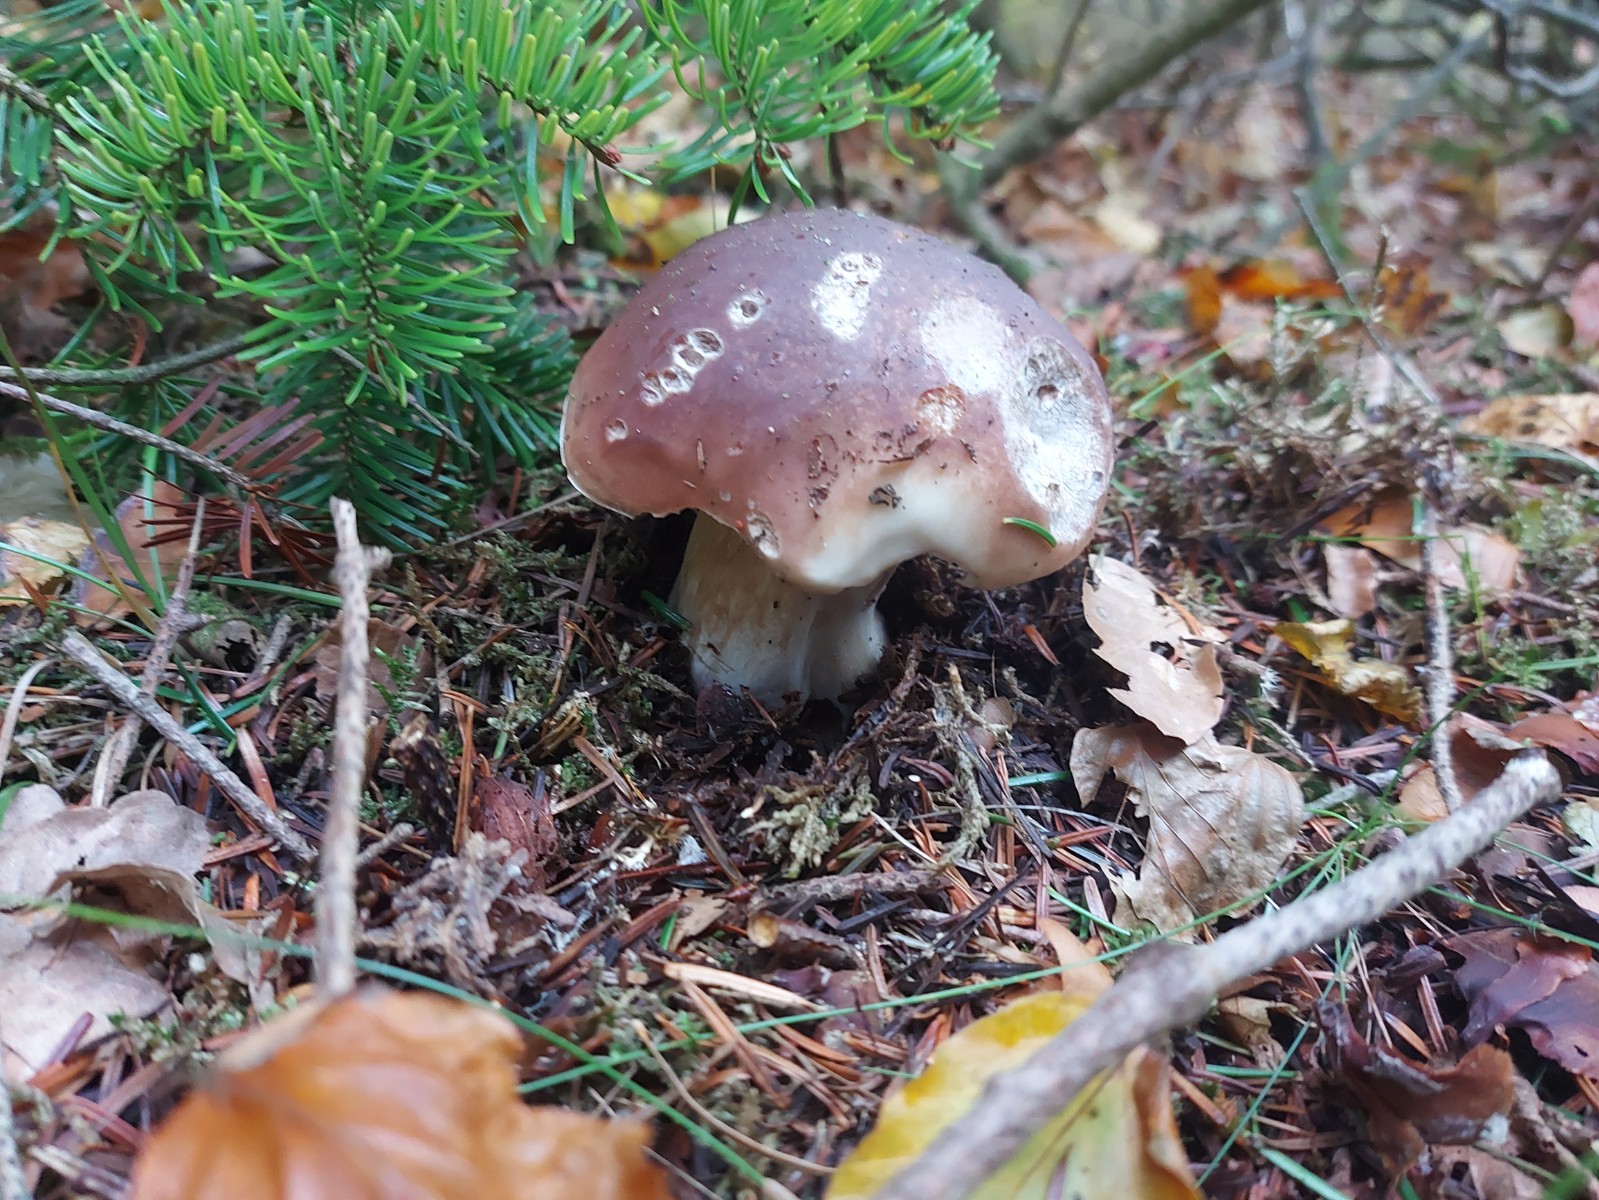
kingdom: Fungi
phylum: Basidiomycota
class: Agaricomycetes
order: Boletales
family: Boletaceae
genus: Boletus
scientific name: Boletus edulis
